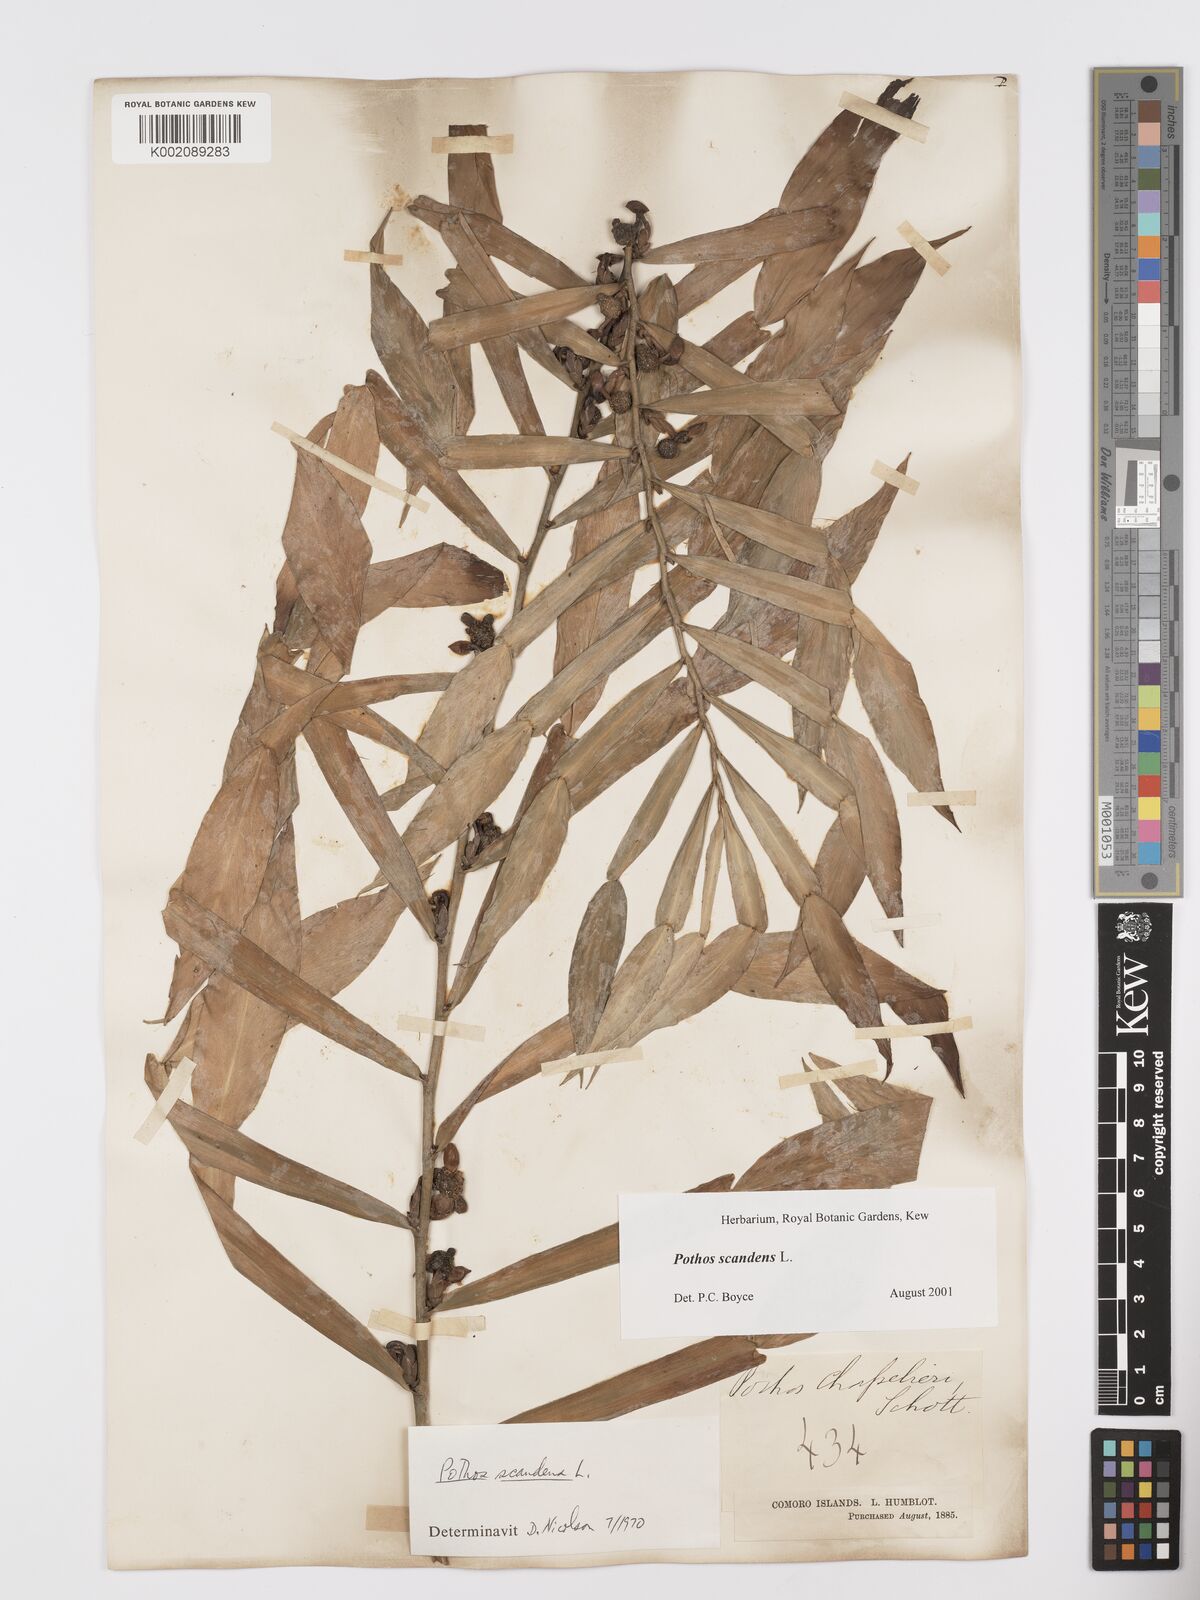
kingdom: Plantae
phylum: Tracheophyta
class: Liliopsida
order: Alismatales
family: Araceae
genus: Pothos
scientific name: Pothos scandens
